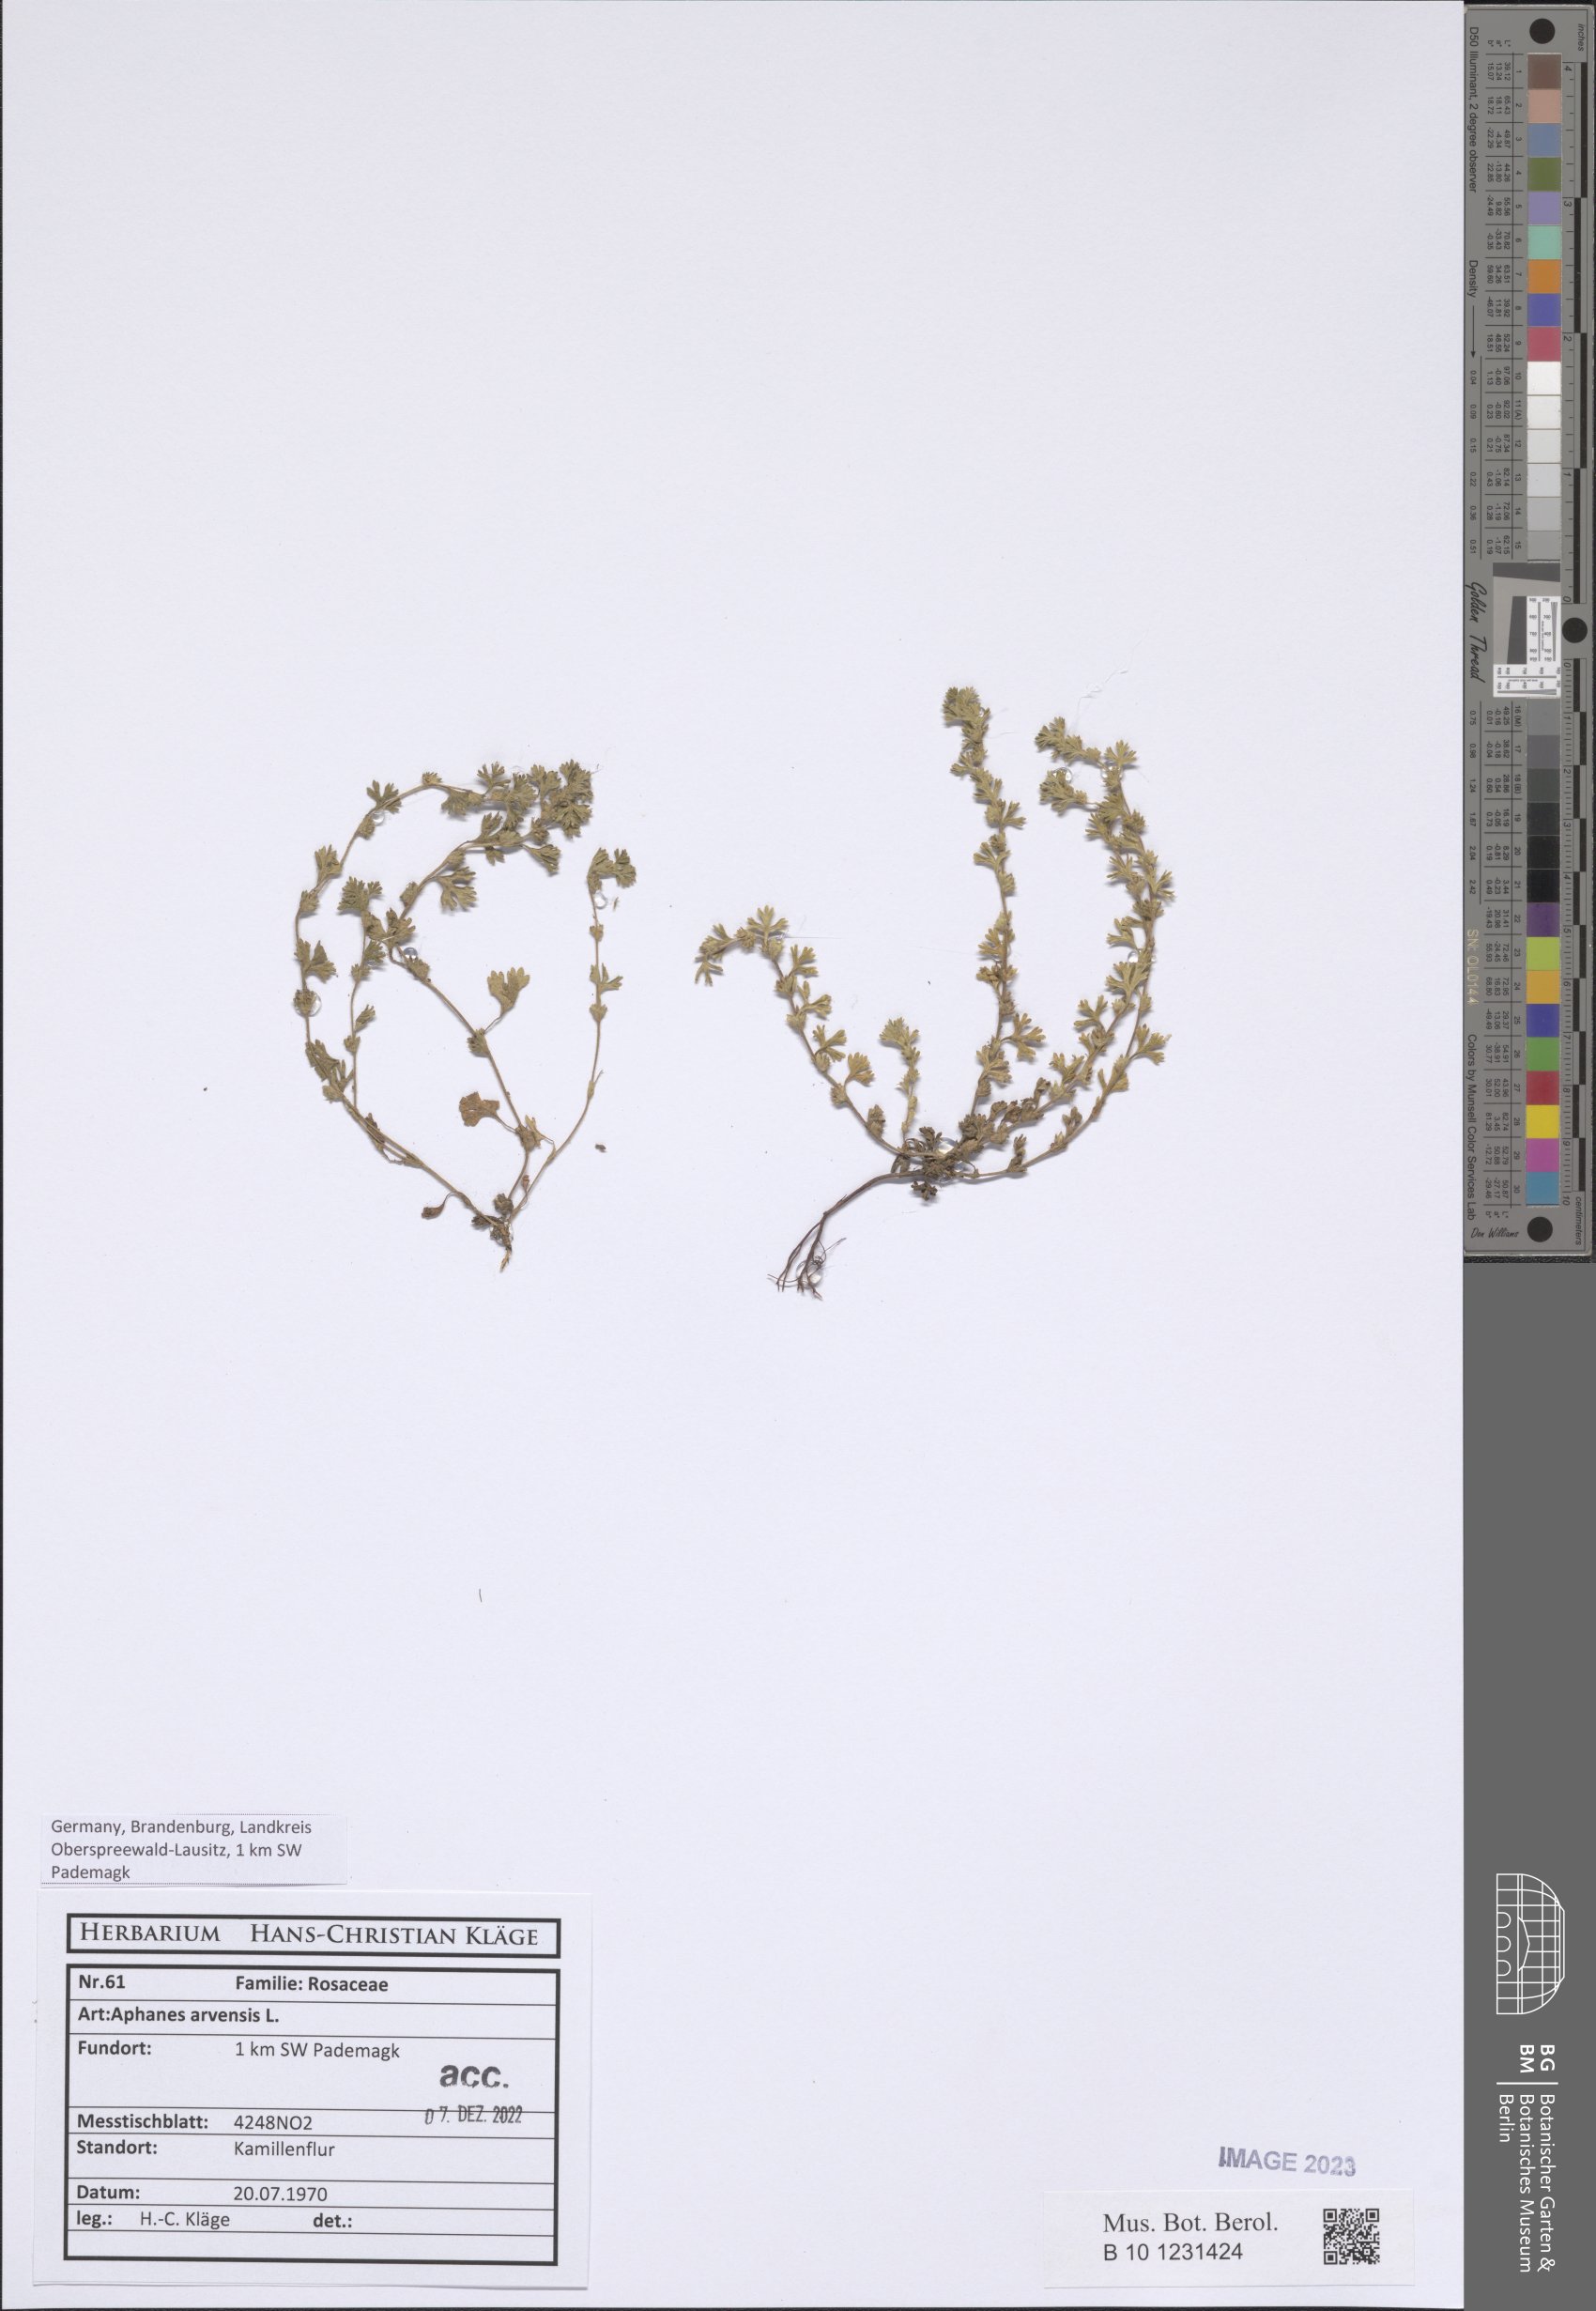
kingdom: Plantae
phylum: Tracheophyta
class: Magnoliopsida
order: Rosales
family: Rosaceae
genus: Aphanes
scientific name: Aphanes arvensis
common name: Parsley-piert
